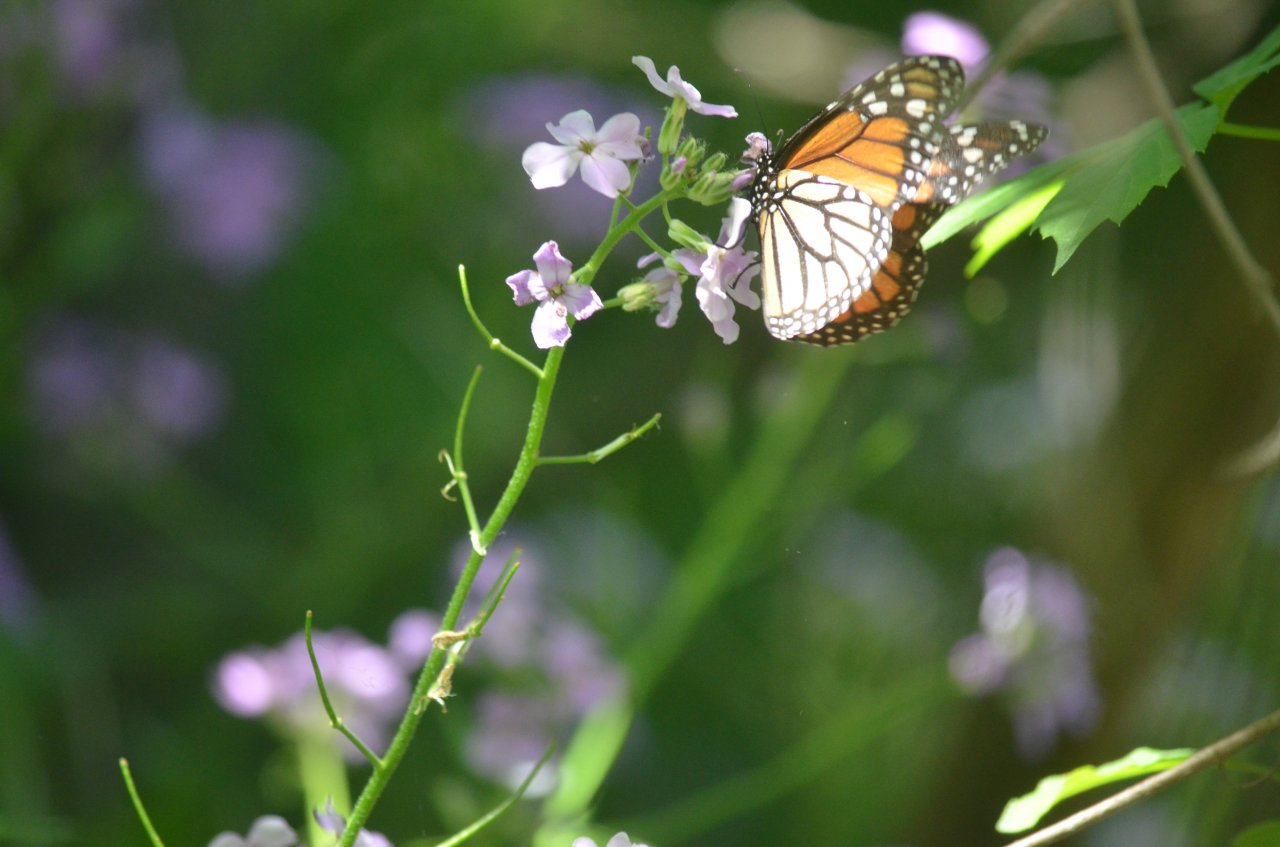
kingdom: Animalia
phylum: Arthropoda
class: Insecta
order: Lepidoptera
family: Nymphalidae
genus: Danaus
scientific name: Danaus plexippus
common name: Monarch
